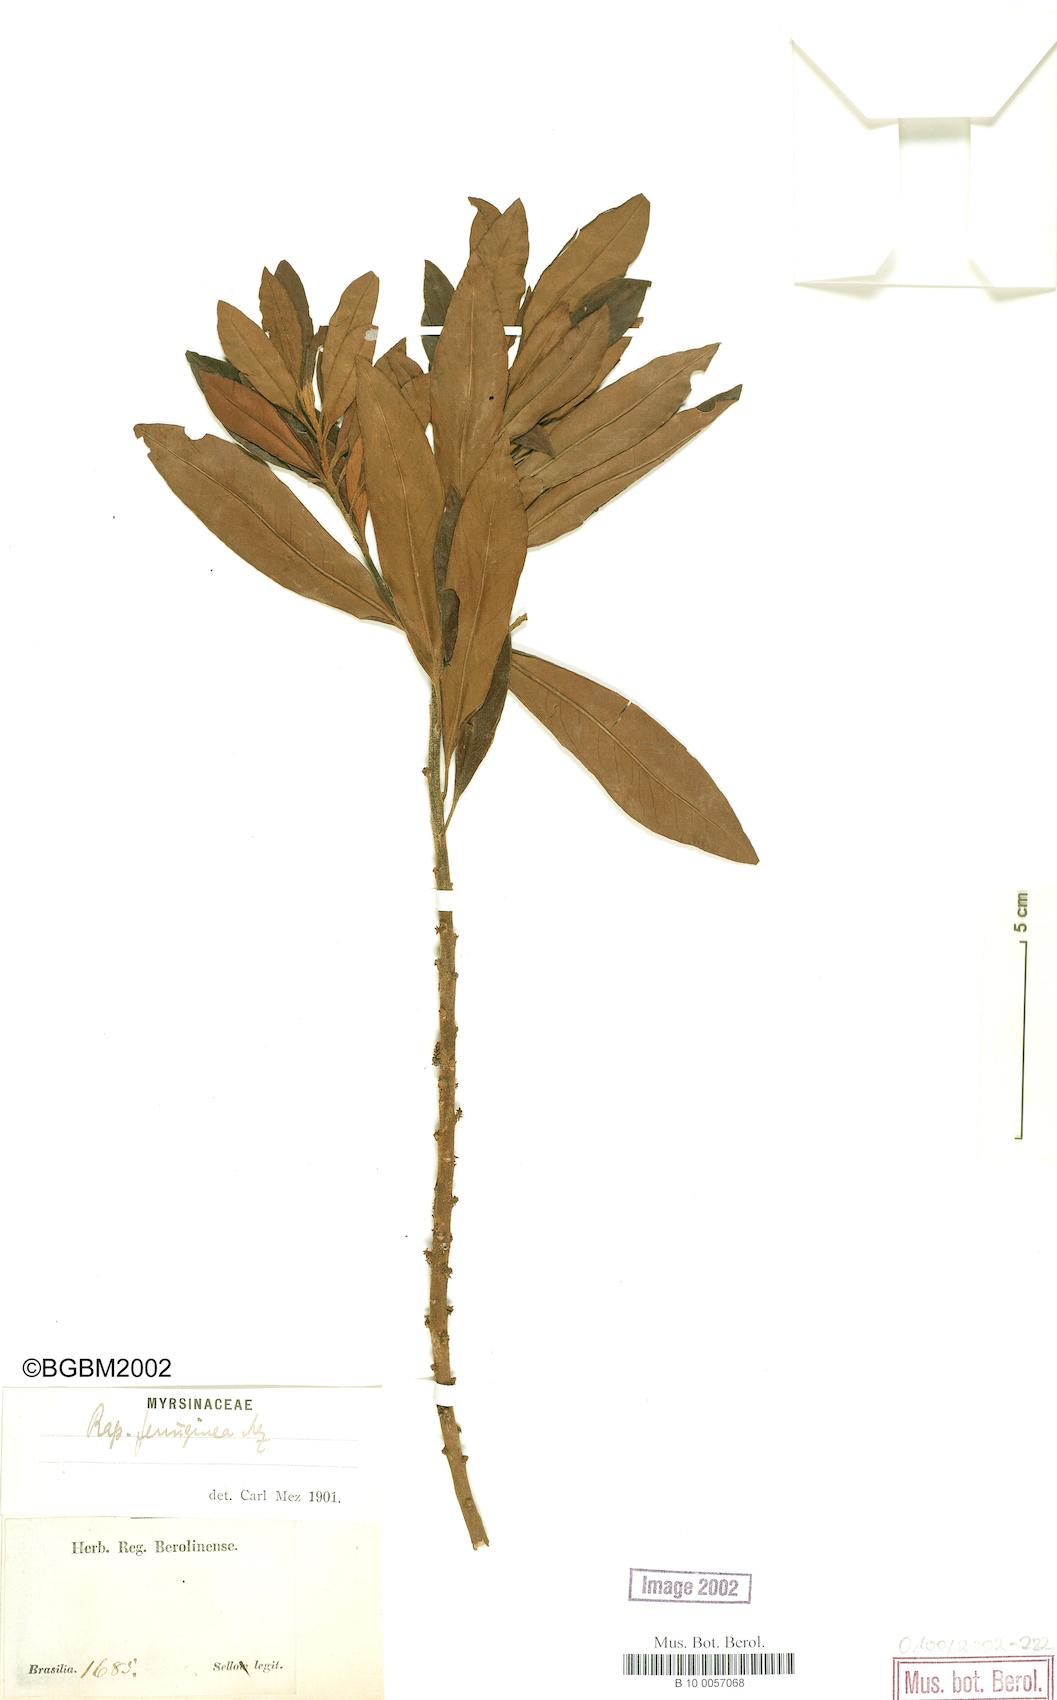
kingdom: Plantae
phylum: Tracheophyta
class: Magnoliopsida
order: Ericales
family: Primulaceae
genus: Myrsine
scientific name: Myrsine coriacea
